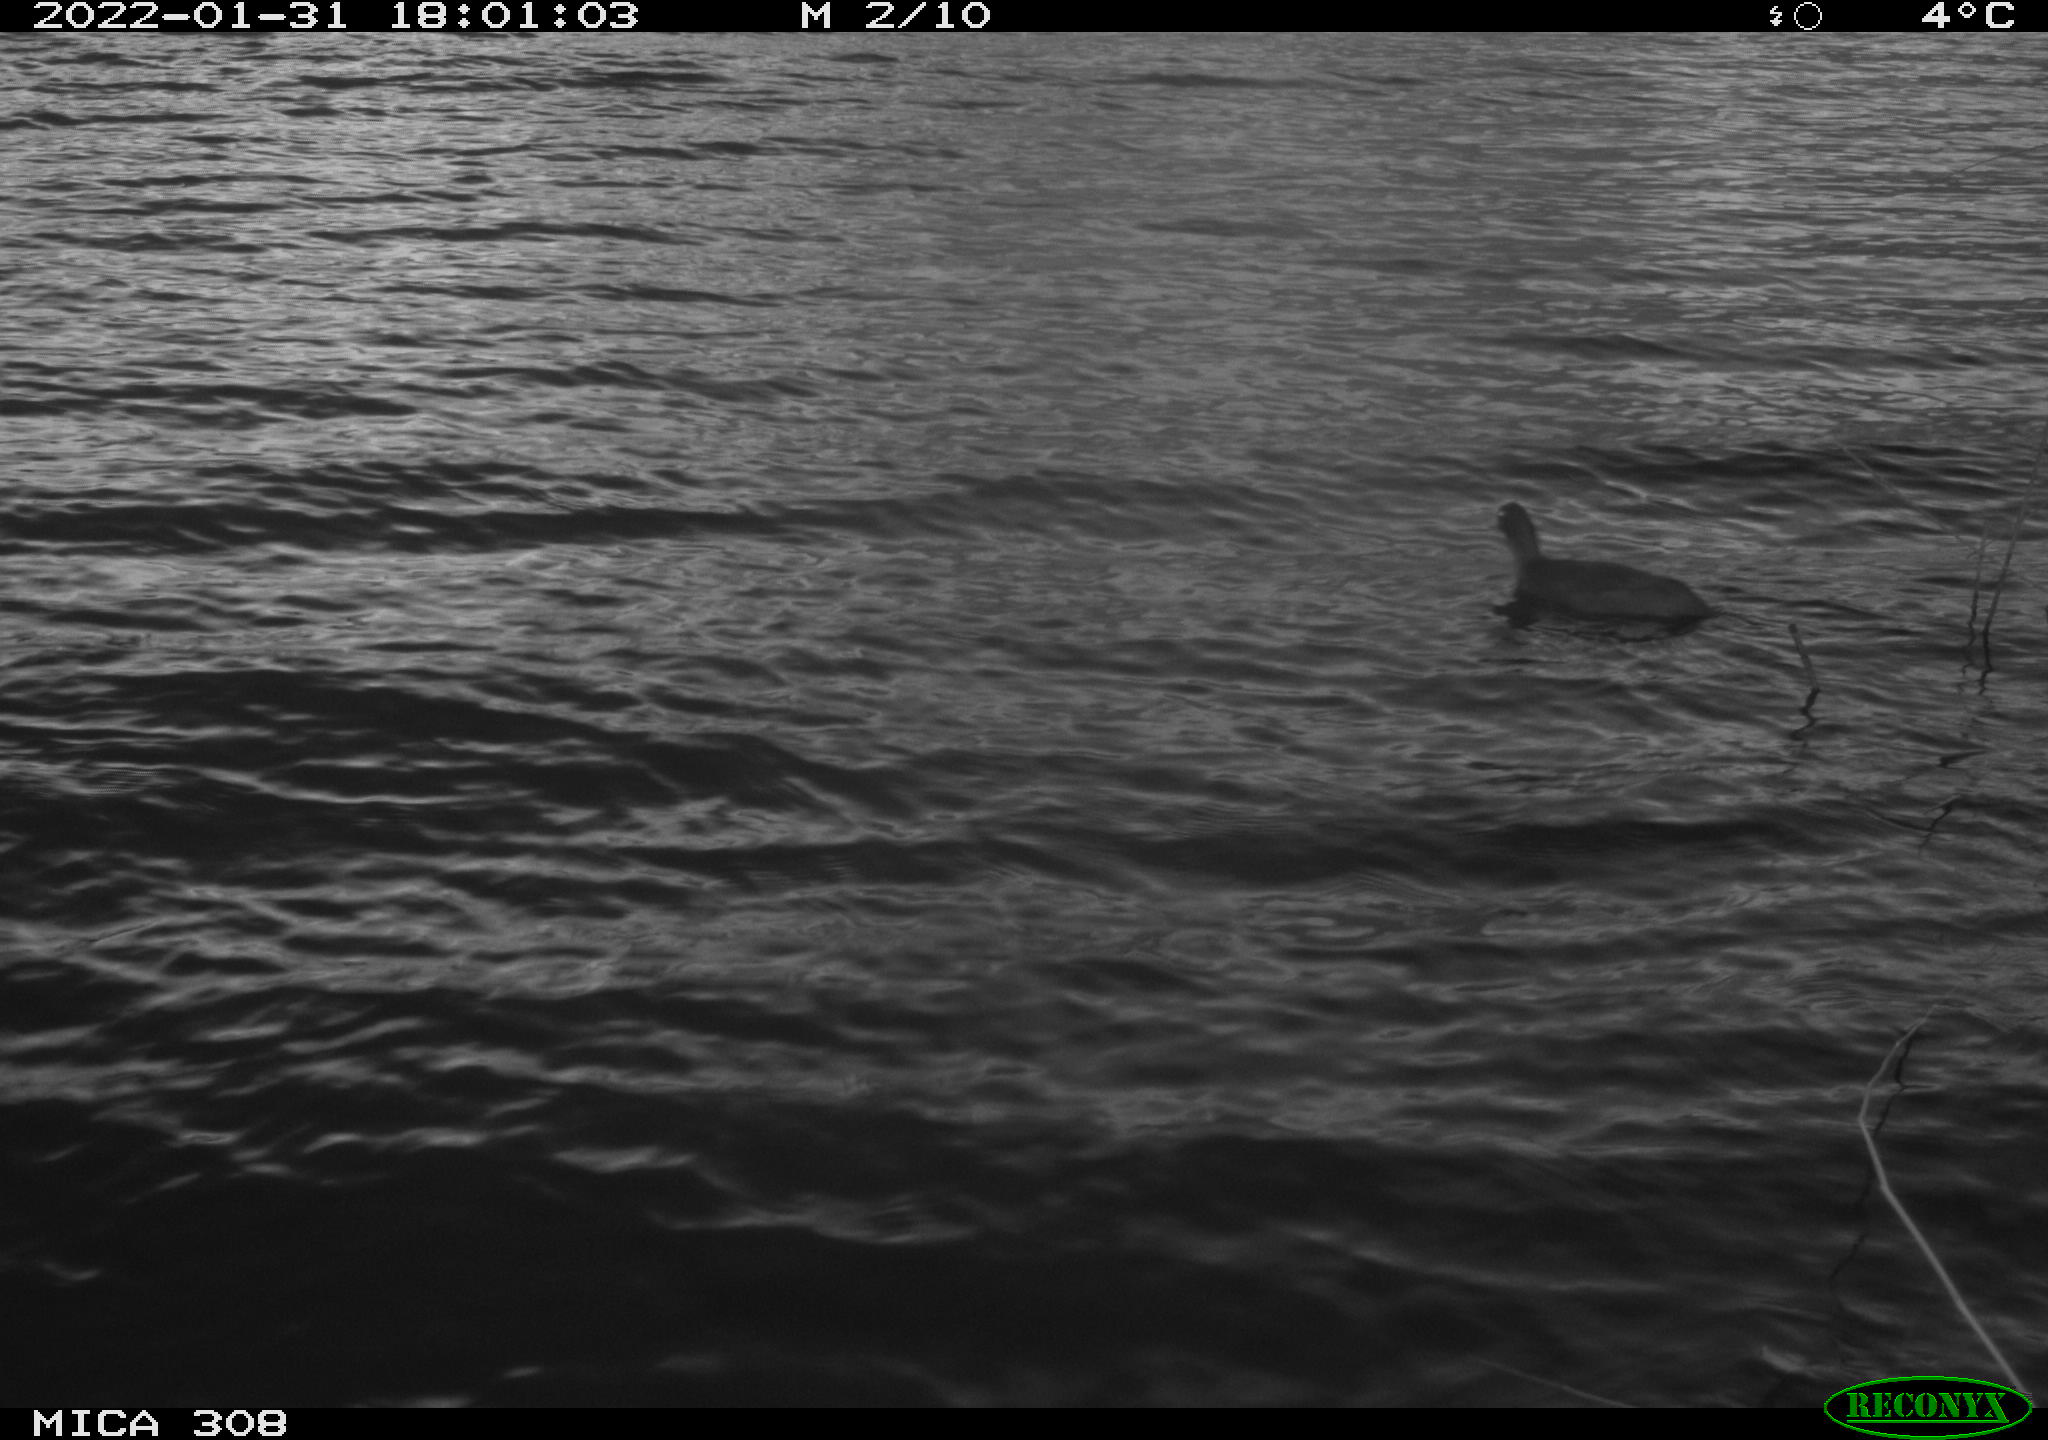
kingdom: Animalia
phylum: Chordata
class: Aves
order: Gruiformes
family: Rallidae
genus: Fulica
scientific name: Fulica atra
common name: Eurasian coot
